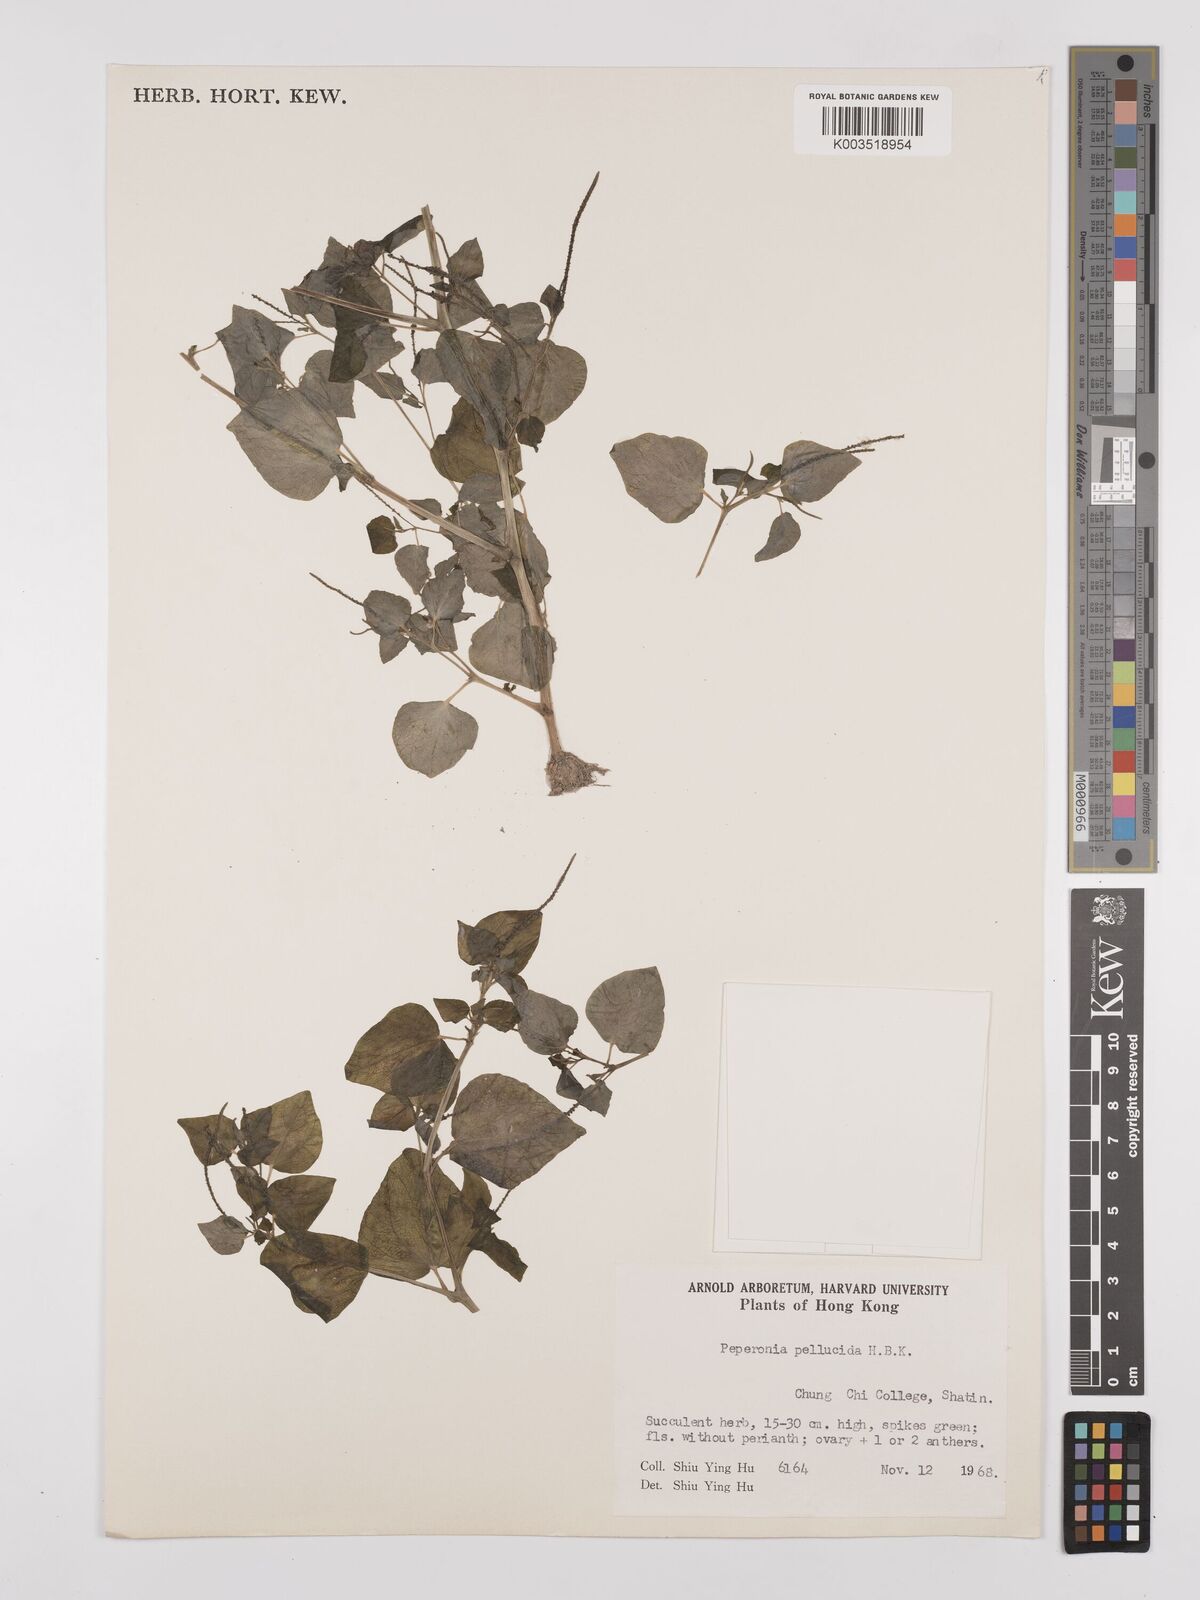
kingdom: Plantae
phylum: Tracheophyta
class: Magnoliopsida
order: Piperales
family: Piperaceae
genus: Peperomia
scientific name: Peperomia pellucida
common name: Man to man
